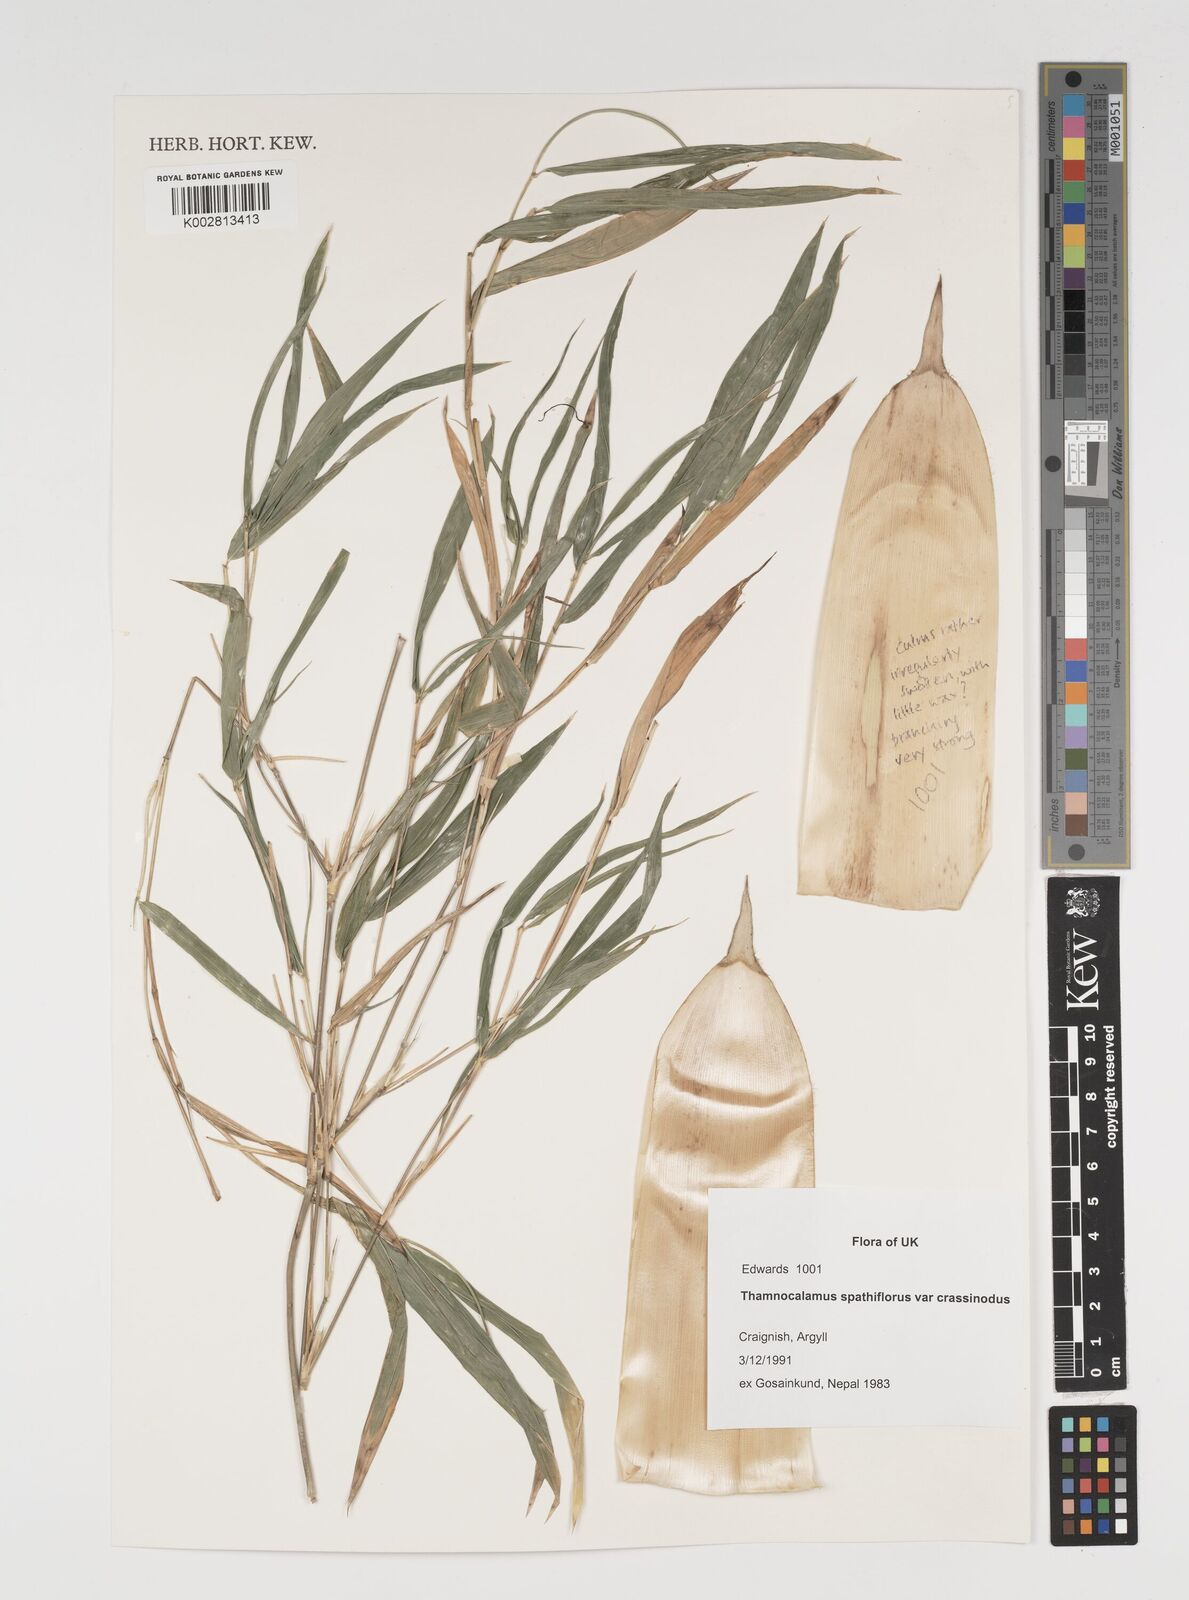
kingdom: Plantae
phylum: Tracheophyta
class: Liliopsida
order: Poales
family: Poaceae
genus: Thamnocalamus
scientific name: Thamnocalamus crassinodus
